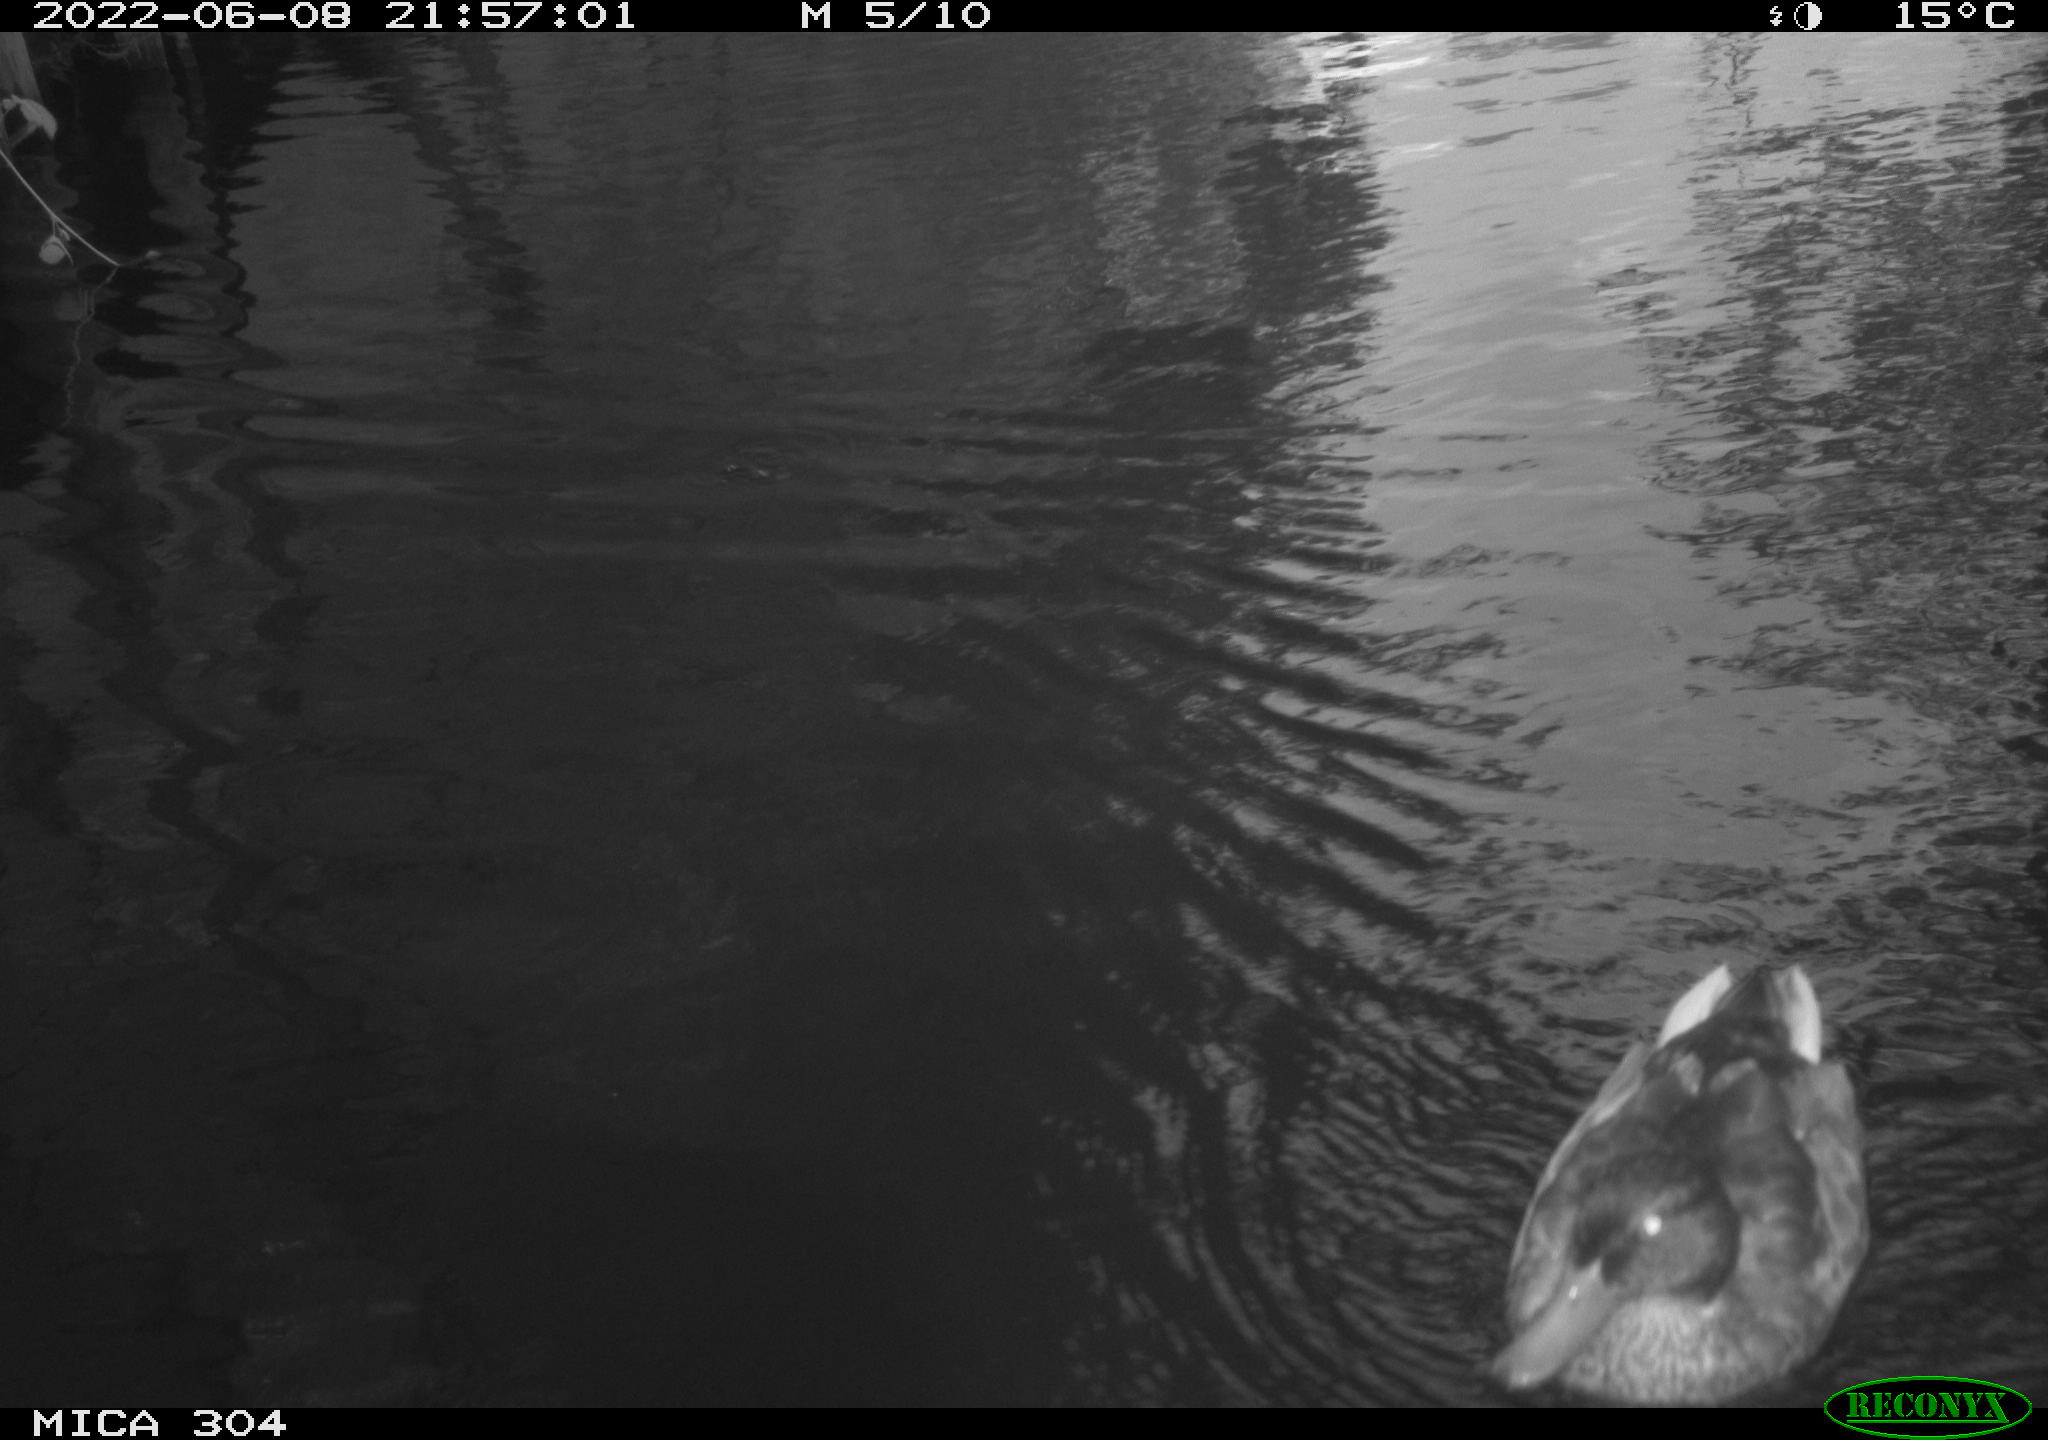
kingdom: Animalia
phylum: Chordata
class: Aves
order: Anseriformes
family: Anatidae
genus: Anas
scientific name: Anas platyrhynchos
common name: Mallard
